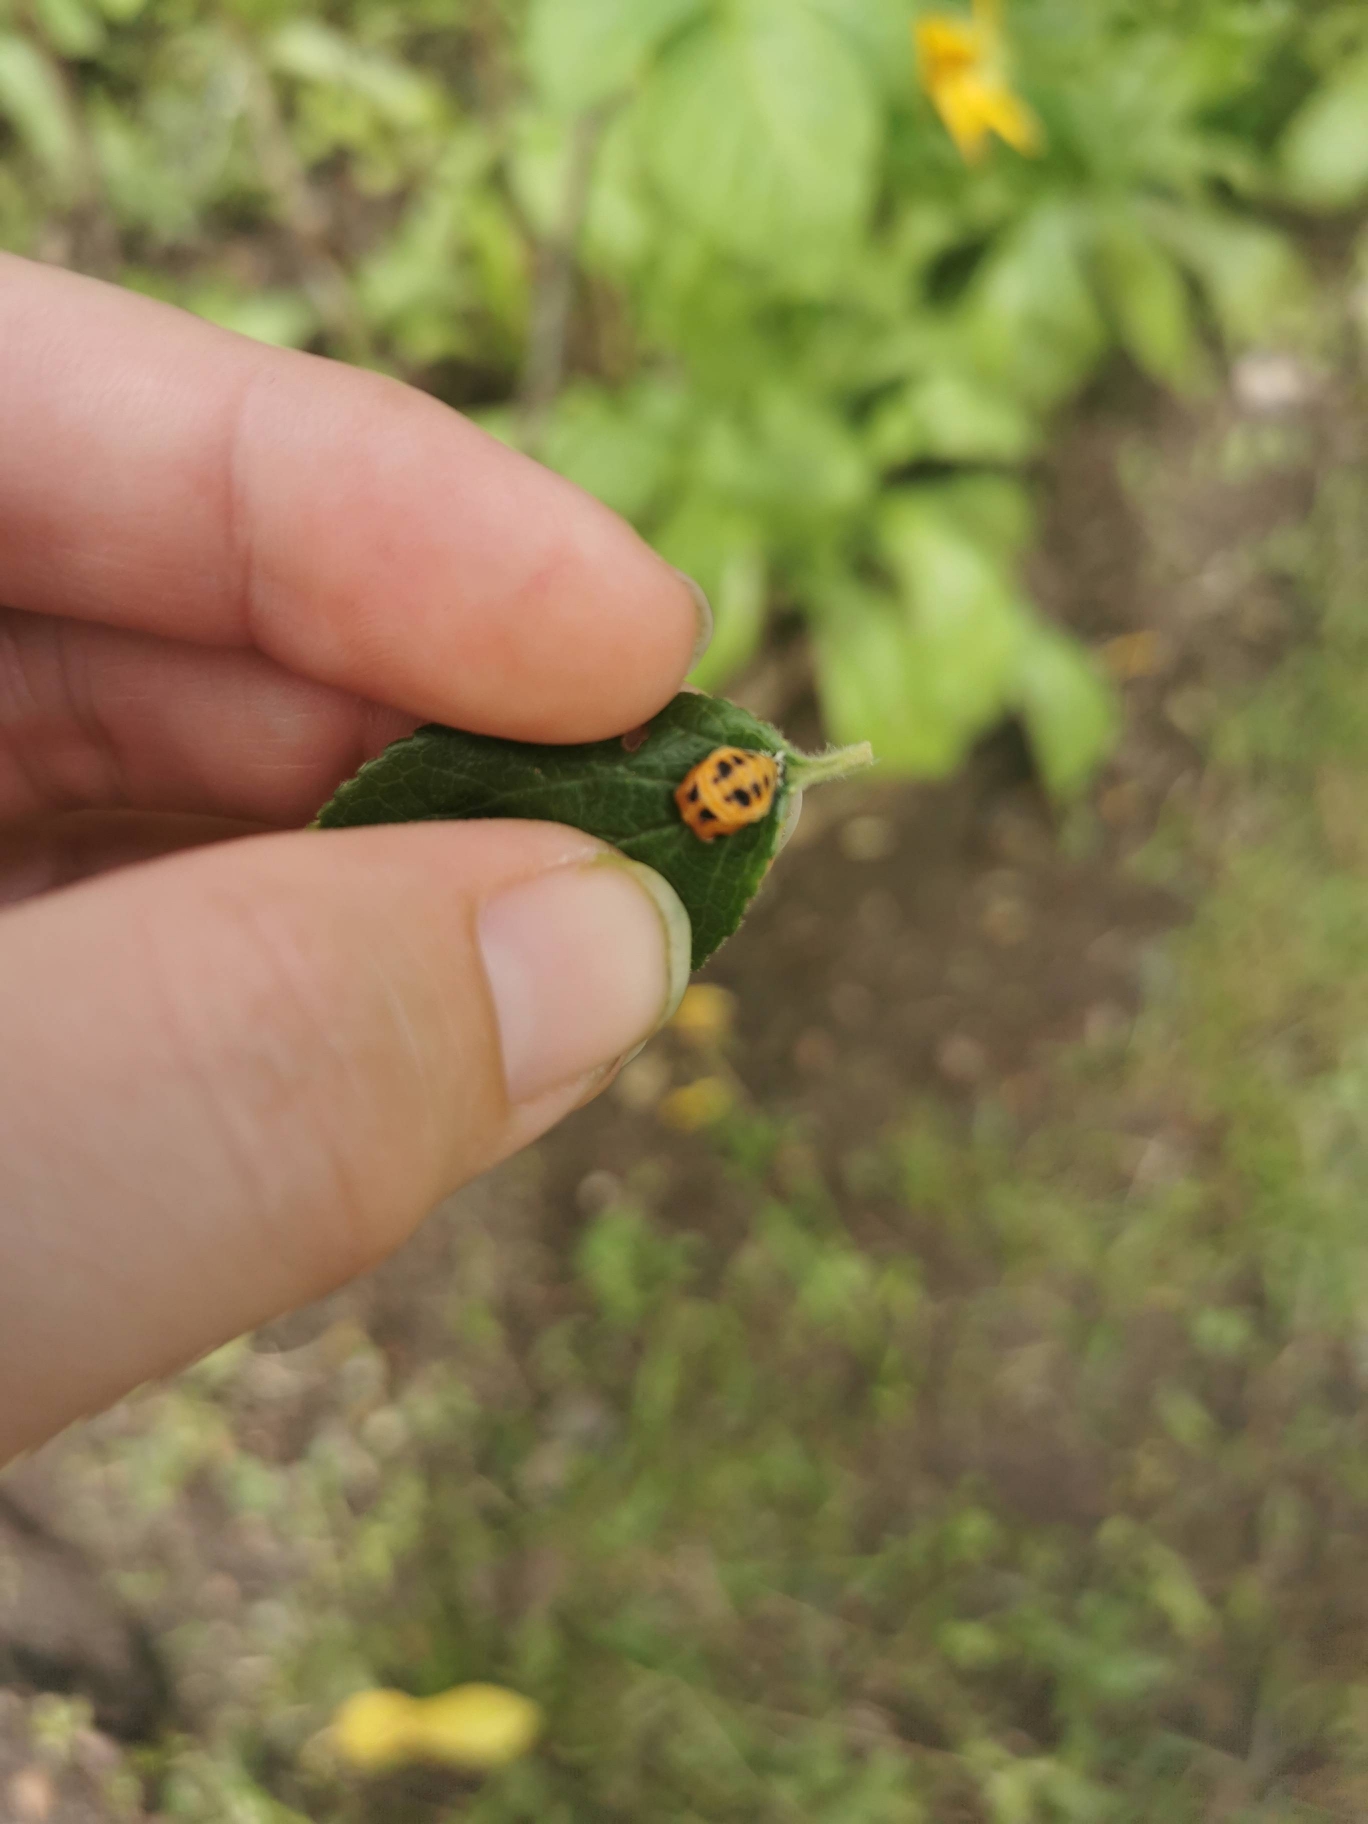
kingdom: Animalia
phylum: Arthropoda
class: Insecta
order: Coleoptera
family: Coccinellidae
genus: Harmonia
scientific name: Harmonia axyridis
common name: Harlekinmariehøne
